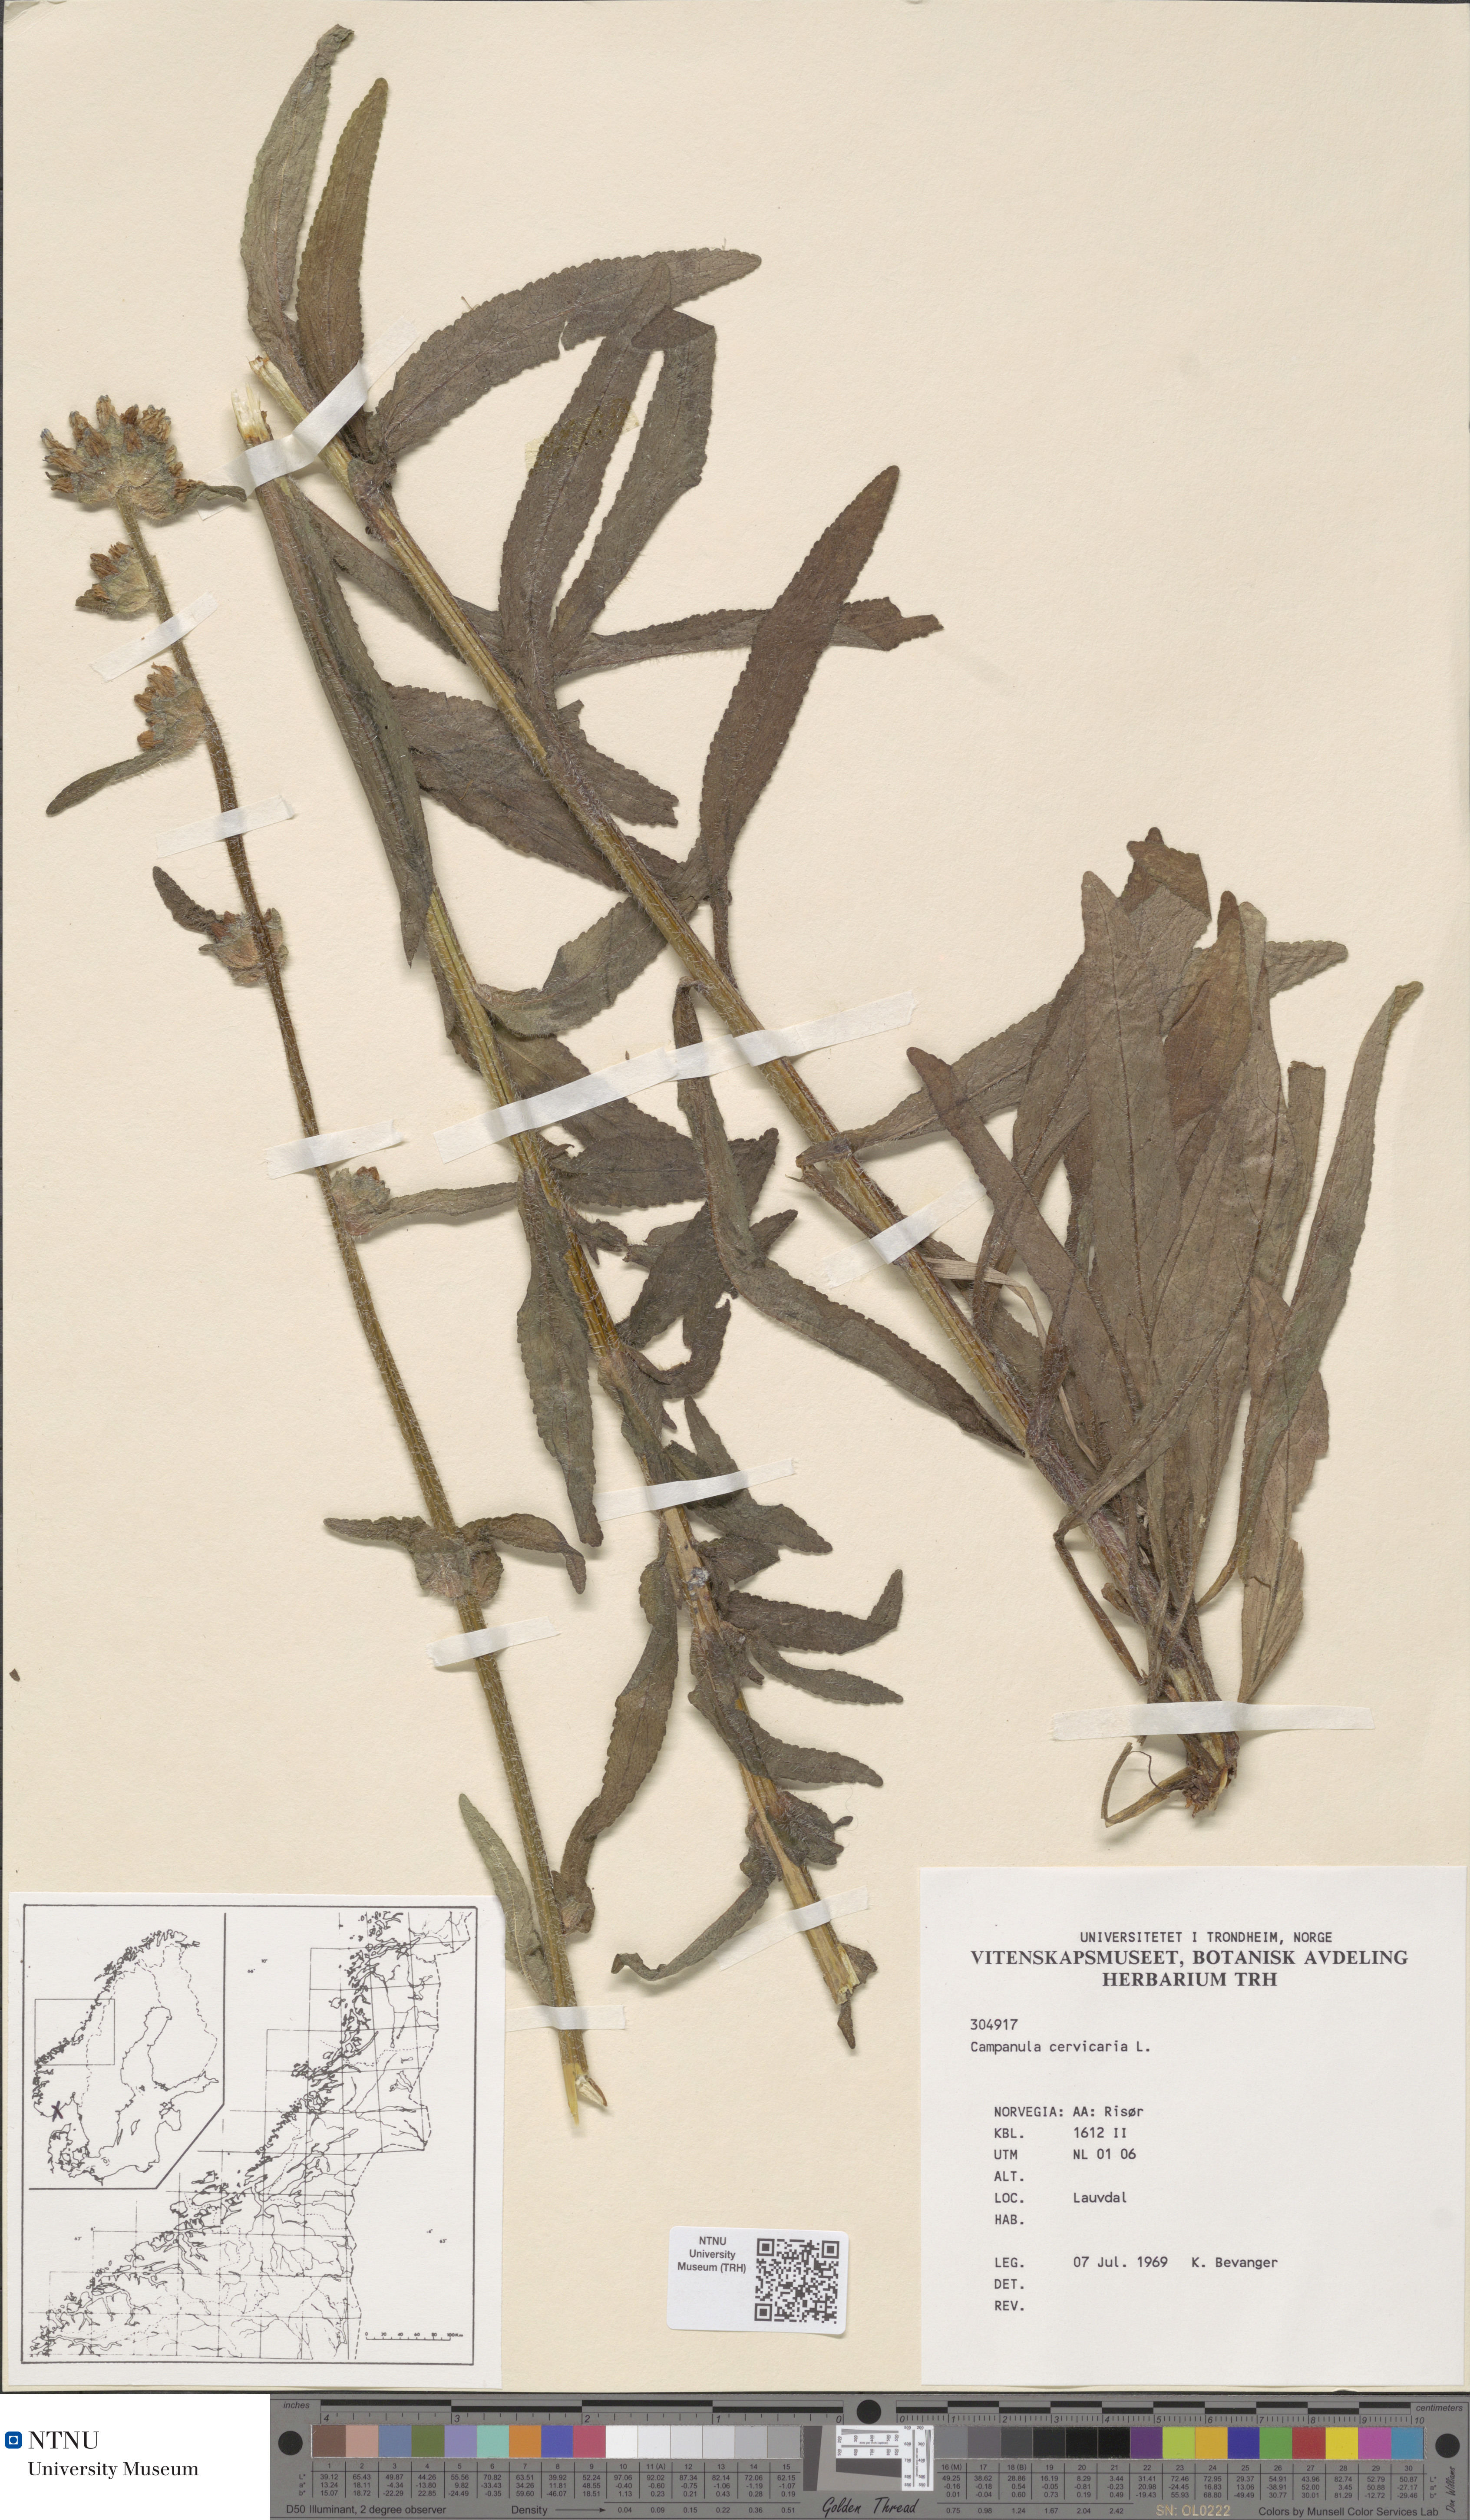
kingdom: Plantae
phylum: Tracheophyta
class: Magnoliopsida
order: Asterales
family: Campanulaceae
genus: Campanula
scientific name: Campanula cervicaria
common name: Bristly bellflower
